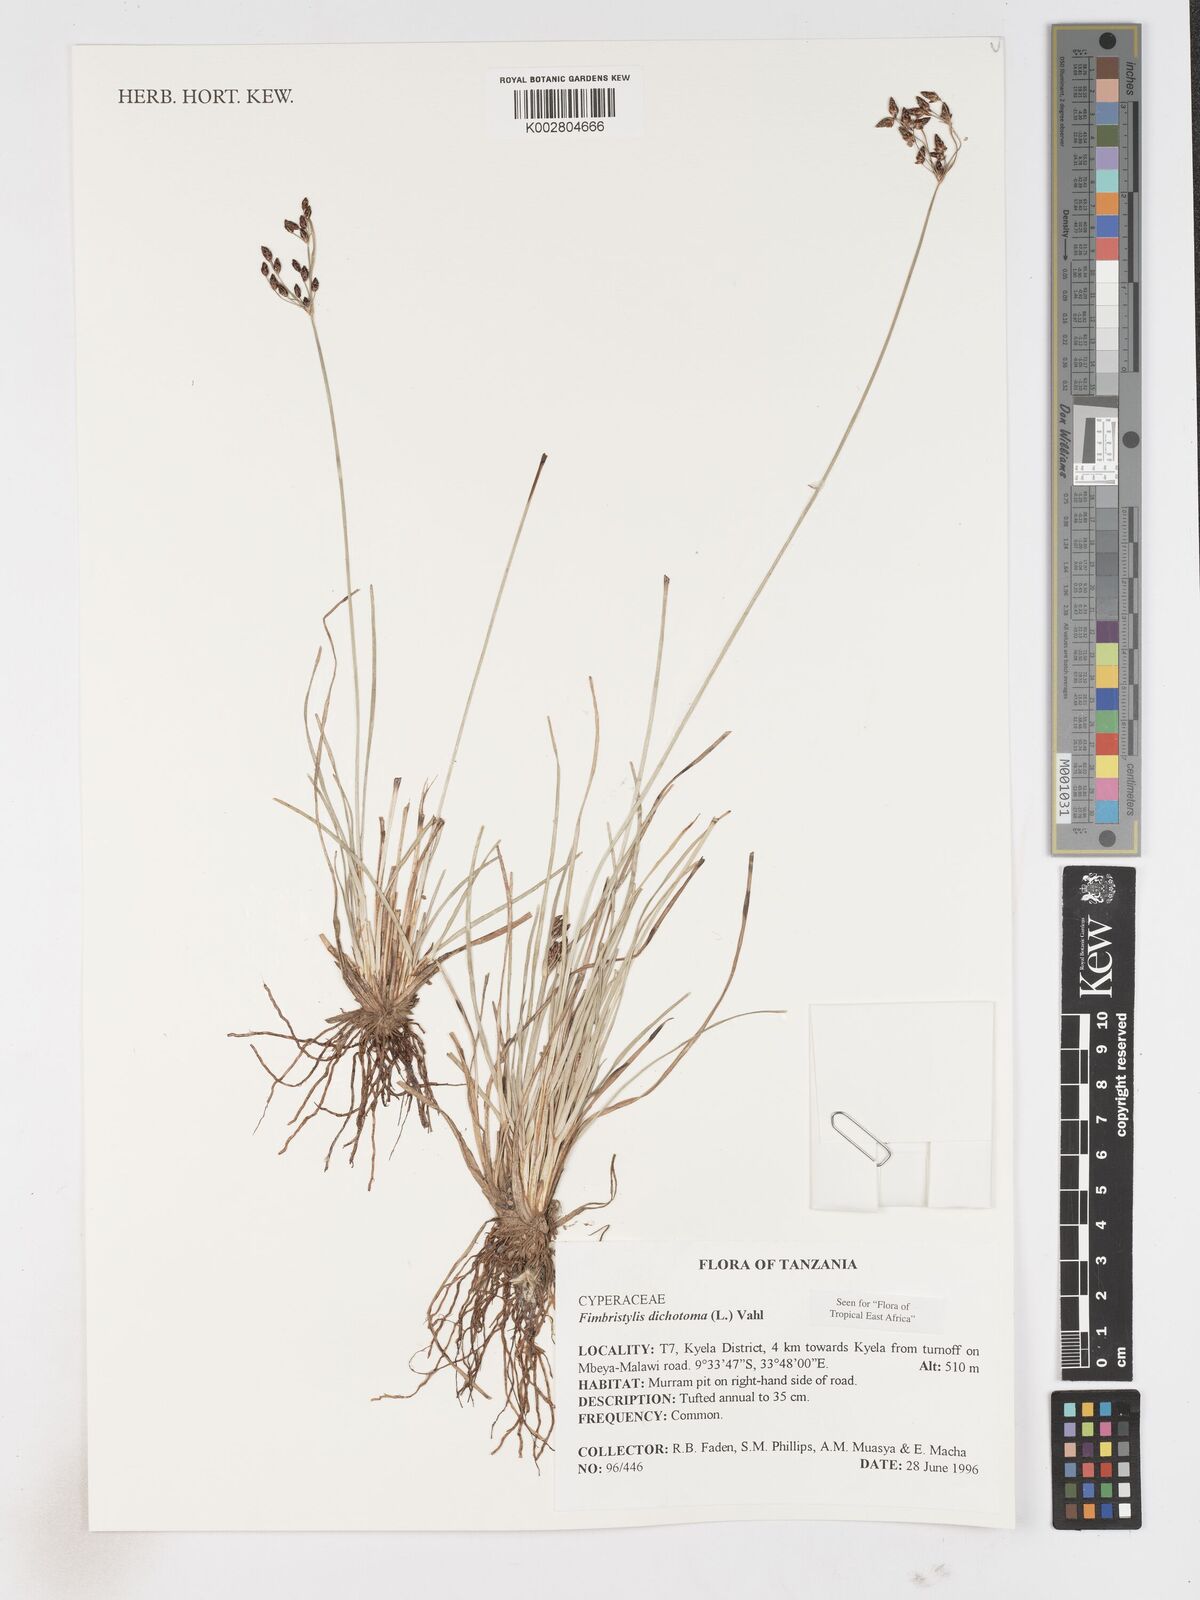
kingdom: Plantae
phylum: Tracheophyta
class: Liliopsida
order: Poales
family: Cyperaceae
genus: Fimbristylis
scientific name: Fimbristylis dichotoma
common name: Forked fimbry
